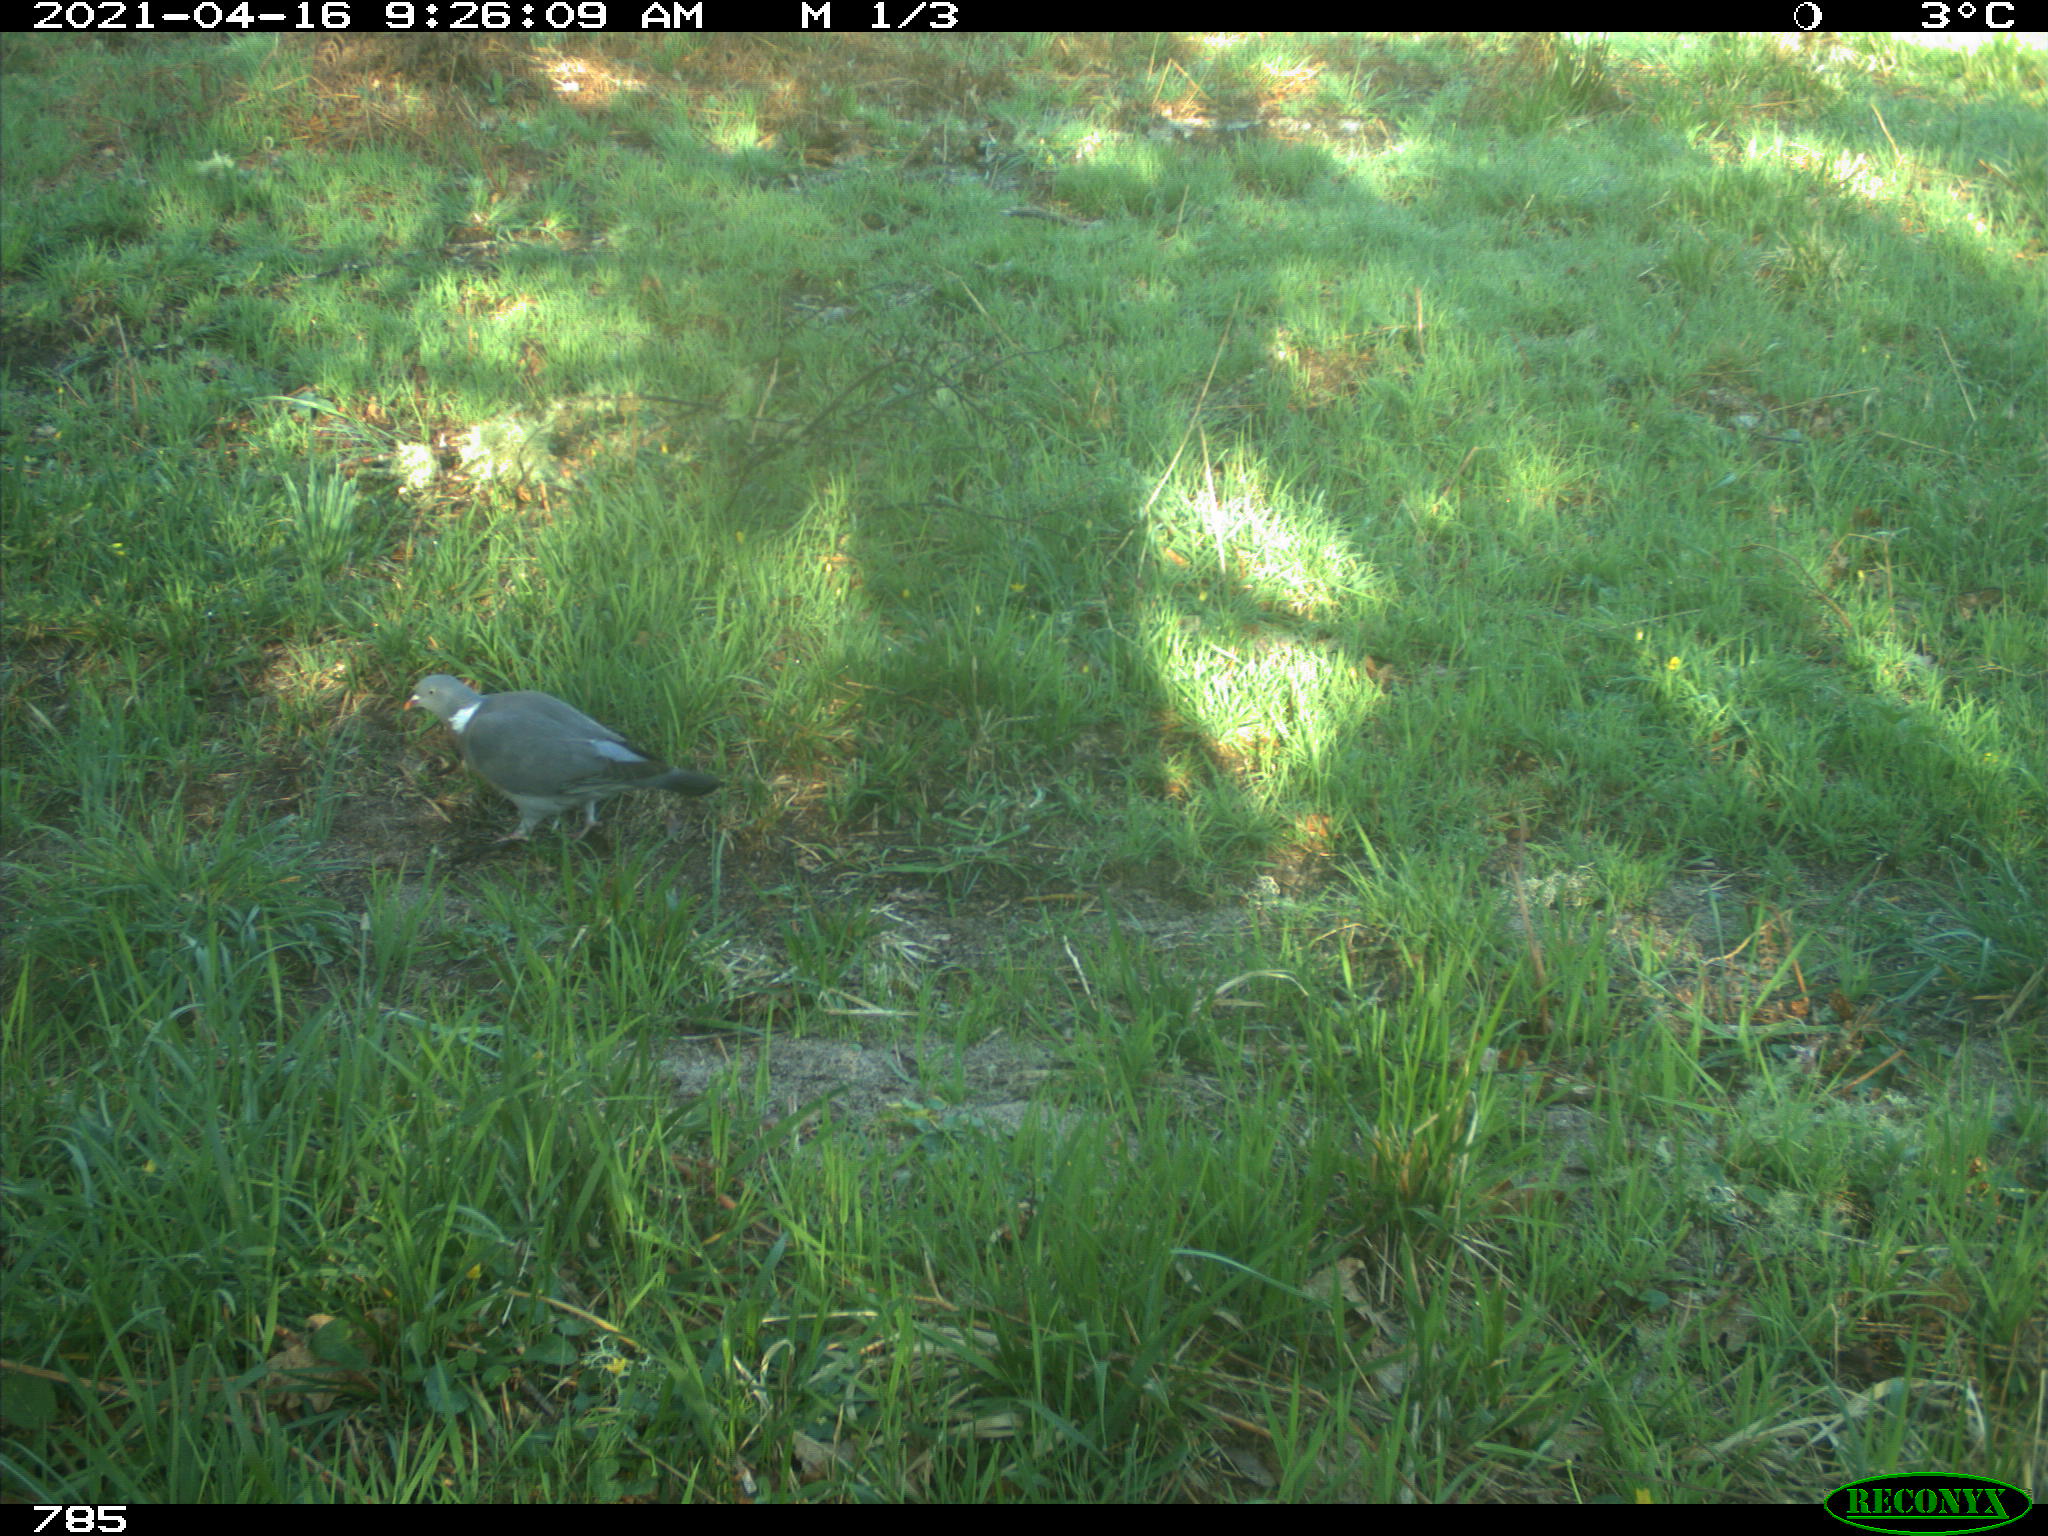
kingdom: Animalia
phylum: Chordata
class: Aves
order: Columbiformes
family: Columbidae
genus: Columba
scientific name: Columba palumbus
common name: Common wood pigeon
